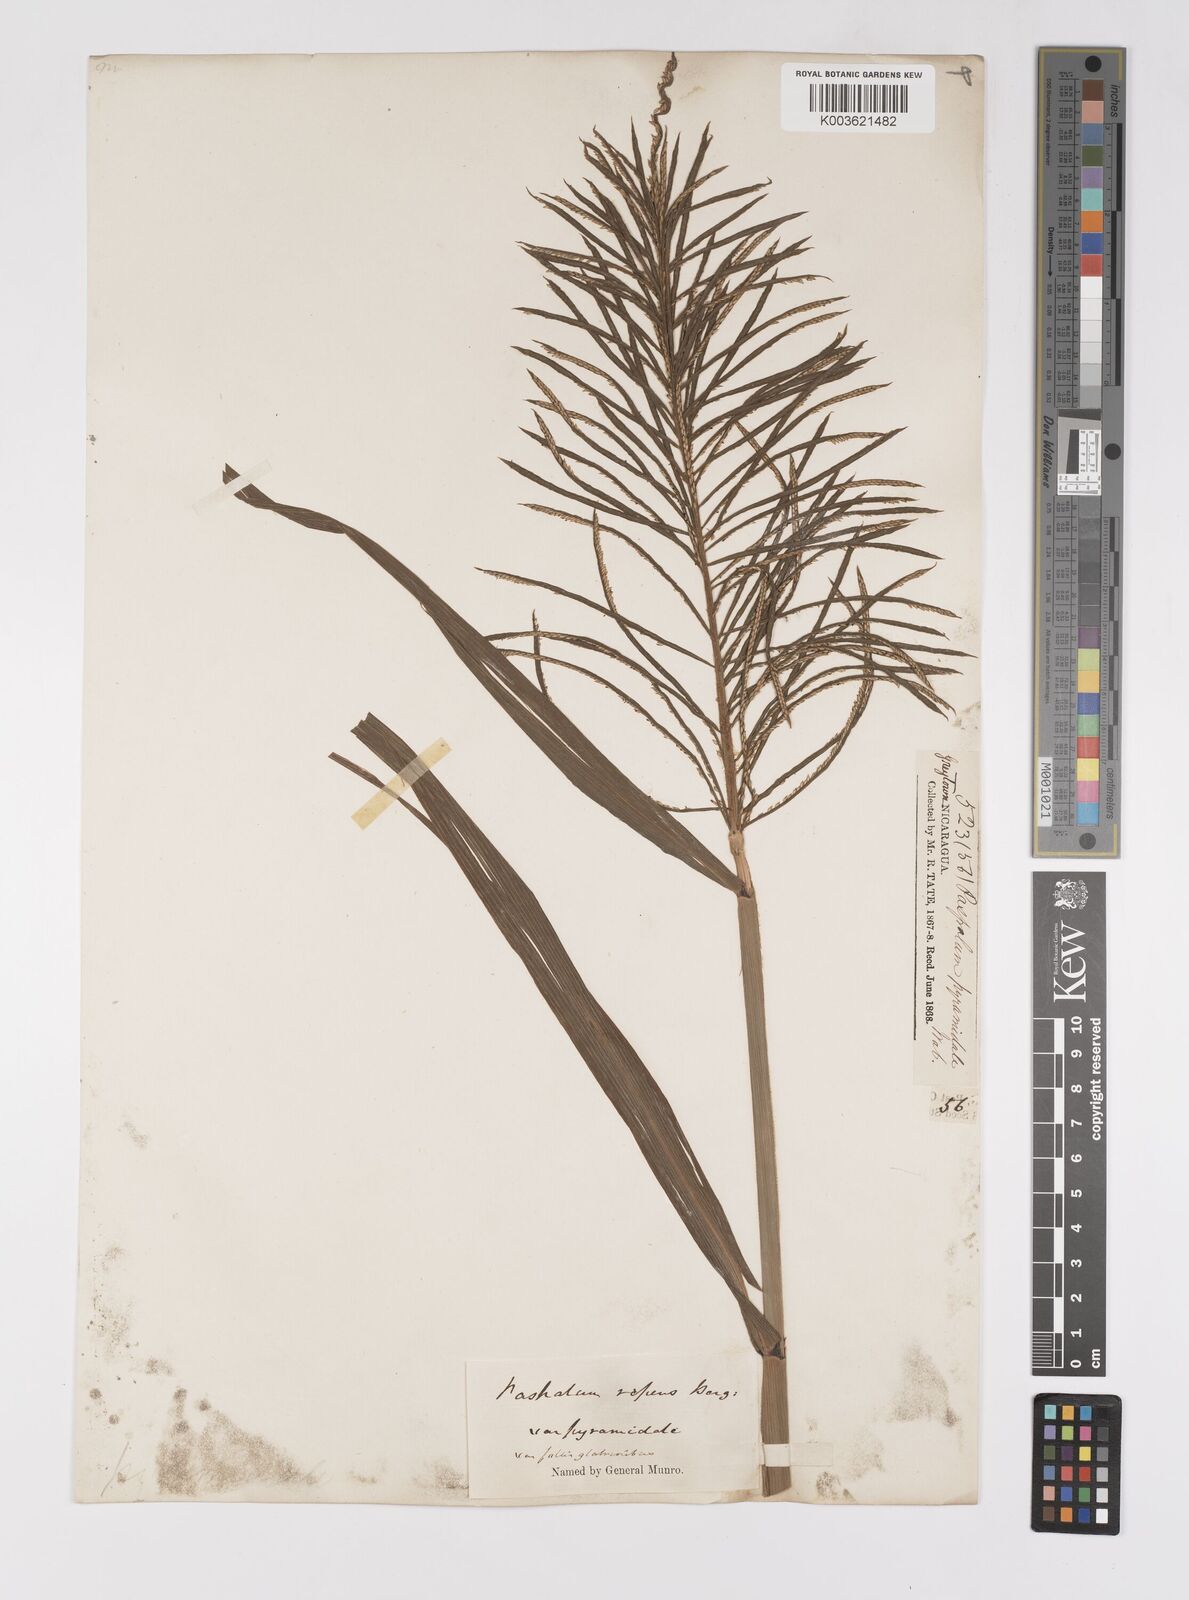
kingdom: Plantae
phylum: Tracheophyta
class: Liliopsida
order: Poales
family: Poaceae
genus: Paspalum
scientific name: Paspalum repens
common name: Water paspalum
